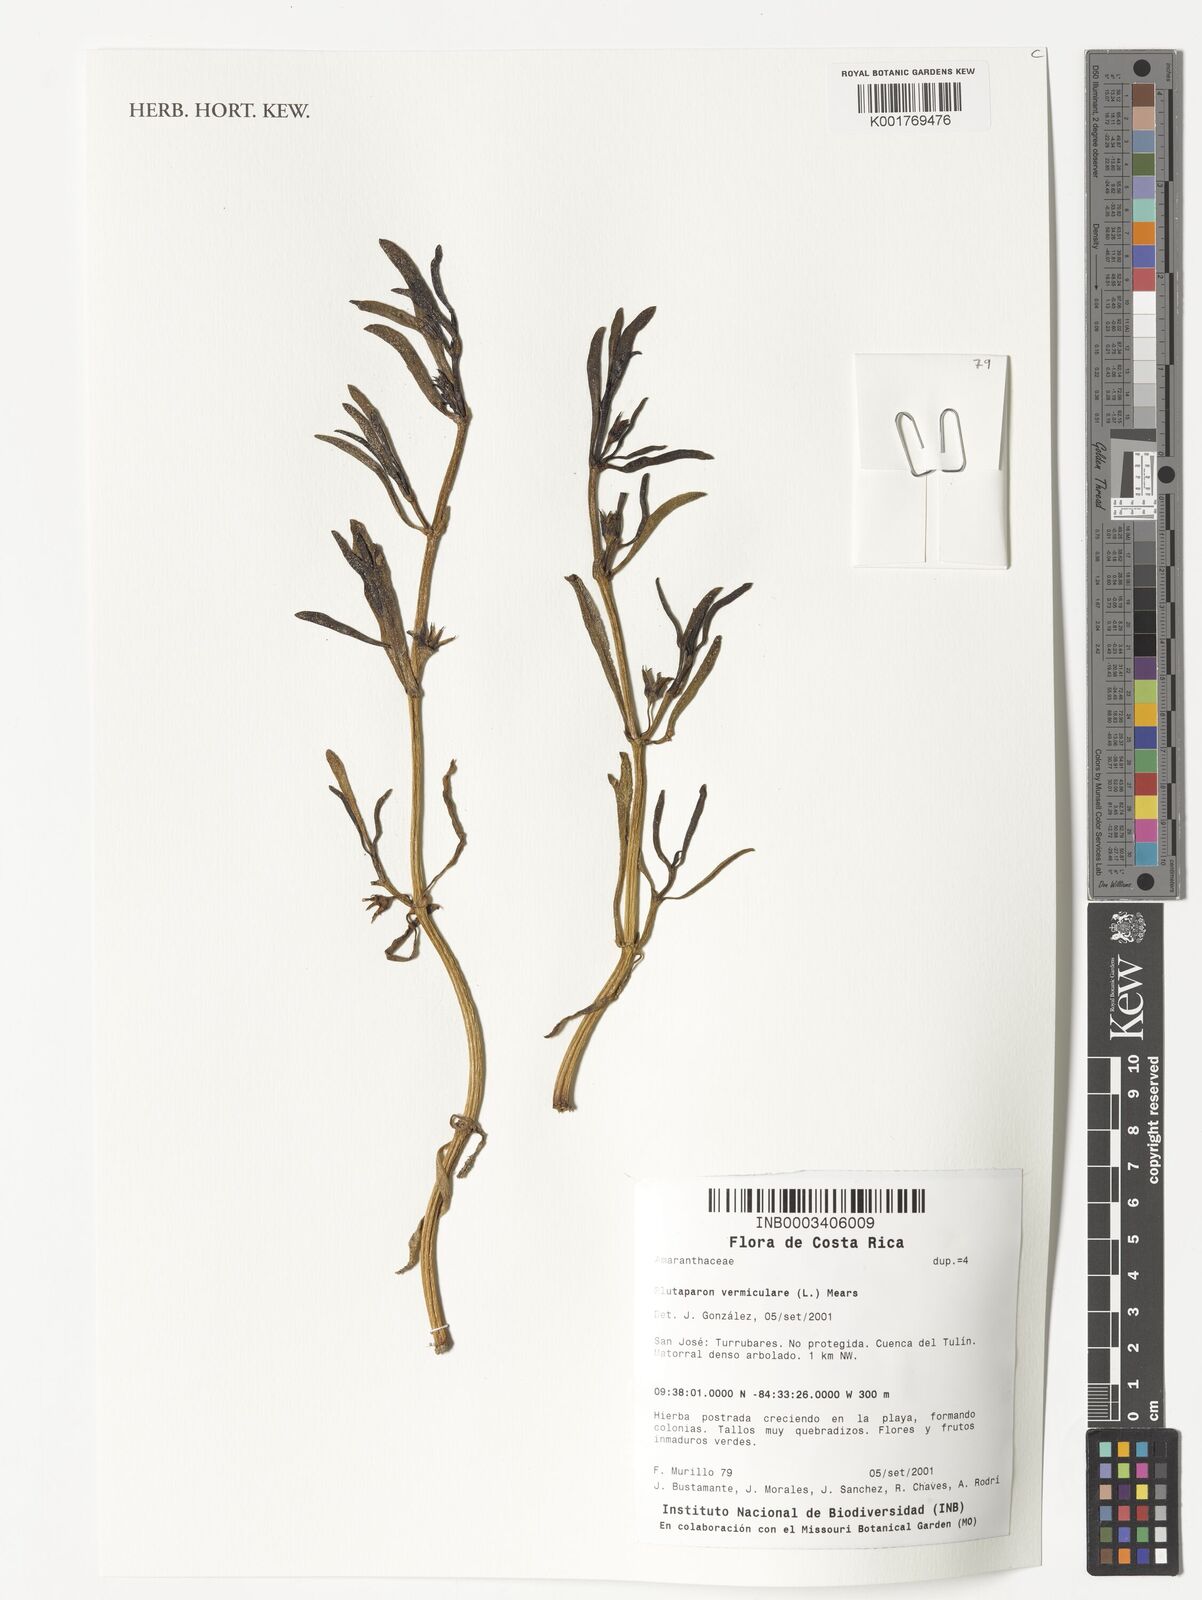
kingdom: Plantae
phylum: Tracheophyta
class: Magnoliopsida
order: Caryophyllales
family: Amaranthaceae
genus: Gomphrena
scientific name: Gomphrena vermicularis
